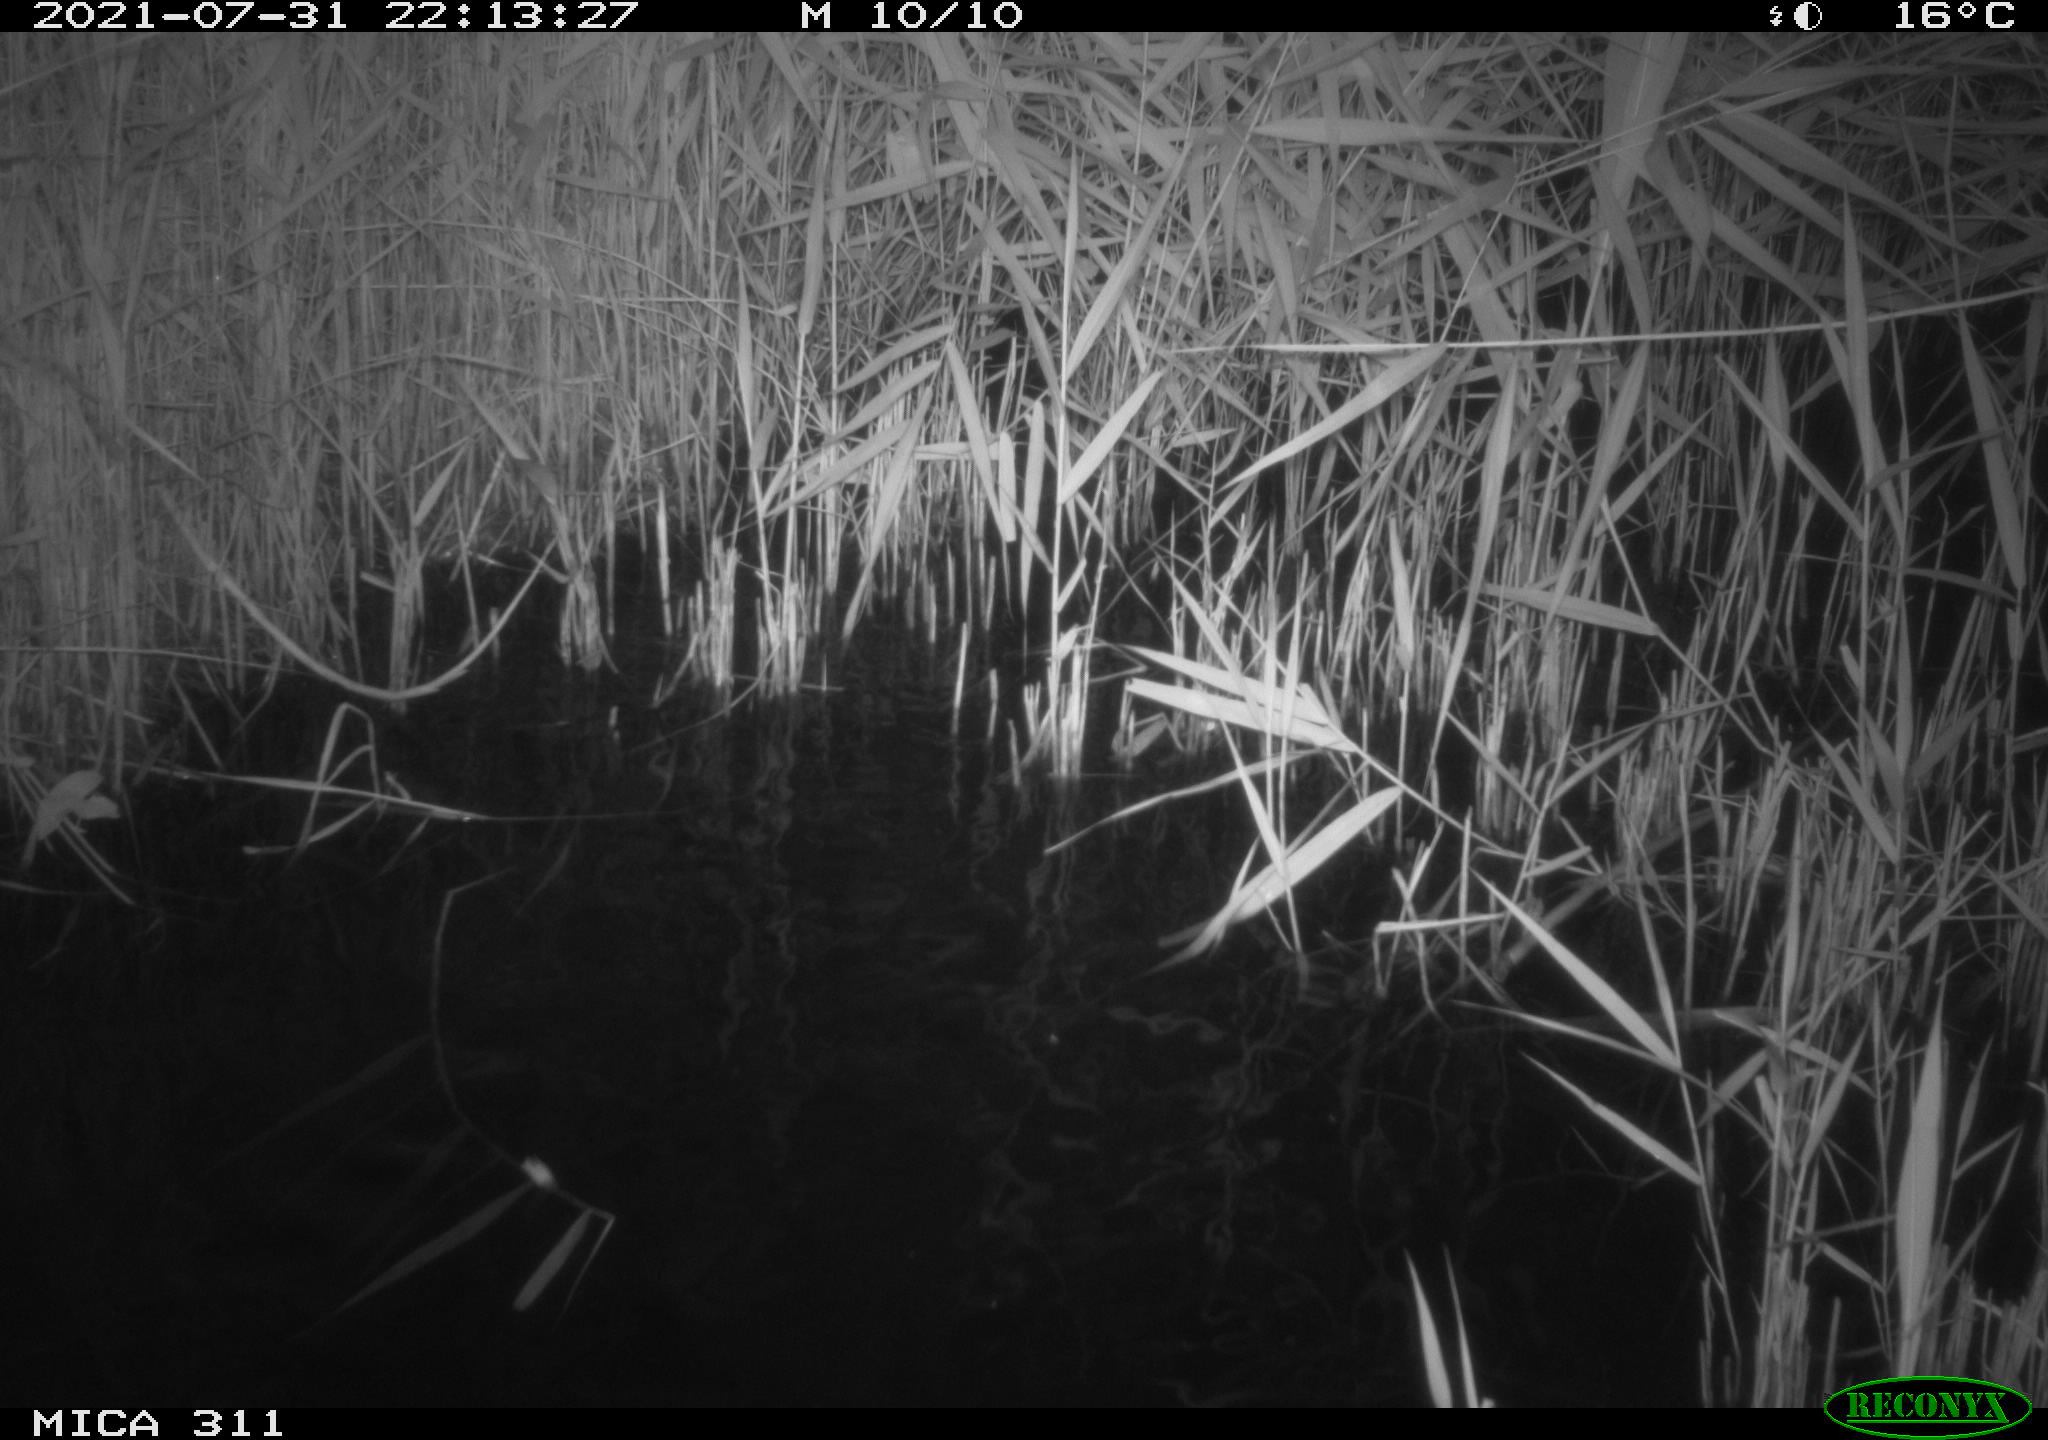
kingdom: Animalia
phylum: Chordata
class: Mammalia
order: Rodentia
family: Muridae
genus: Rattus
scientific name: Rattus norvegicus
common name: Brown rat
